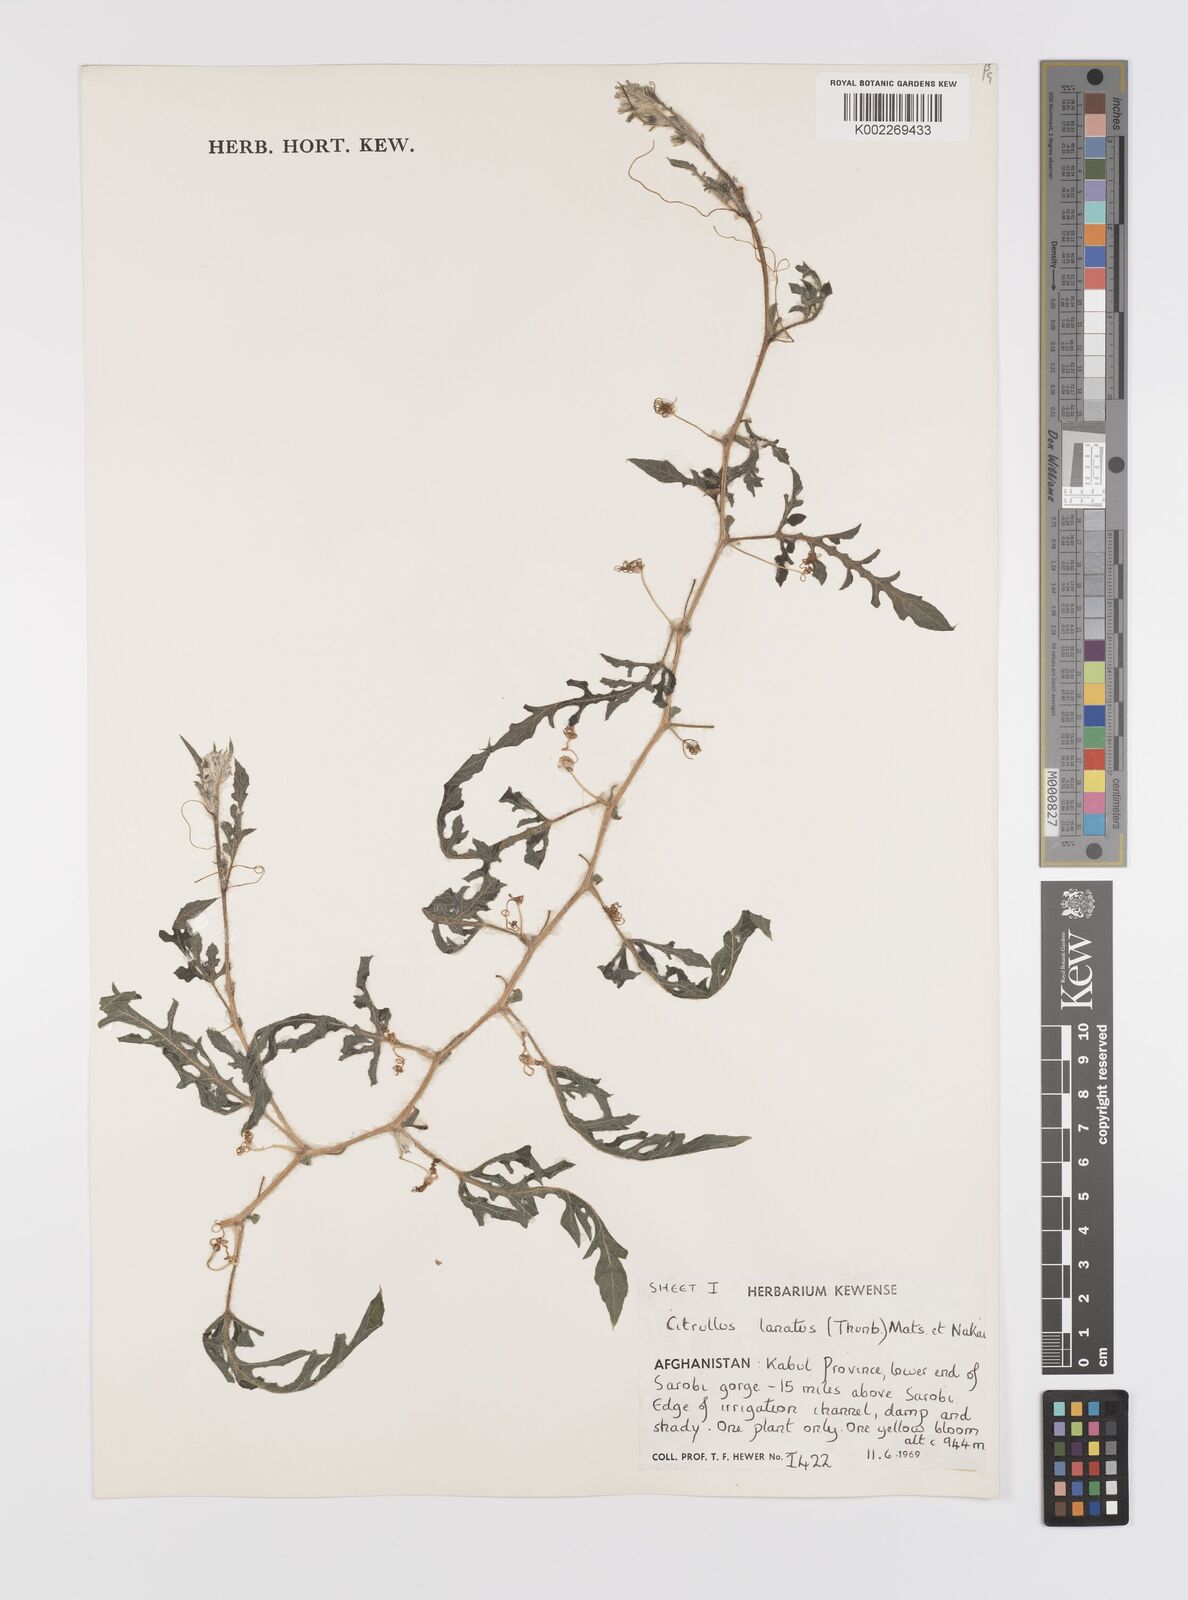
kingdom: Plantae
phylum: Tracheophyta
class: Magnoliopsida
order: Cucurbitales
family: Cucurbitaceae
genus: Citrullus
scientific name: Citrullus lanatus
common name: Watermelon
